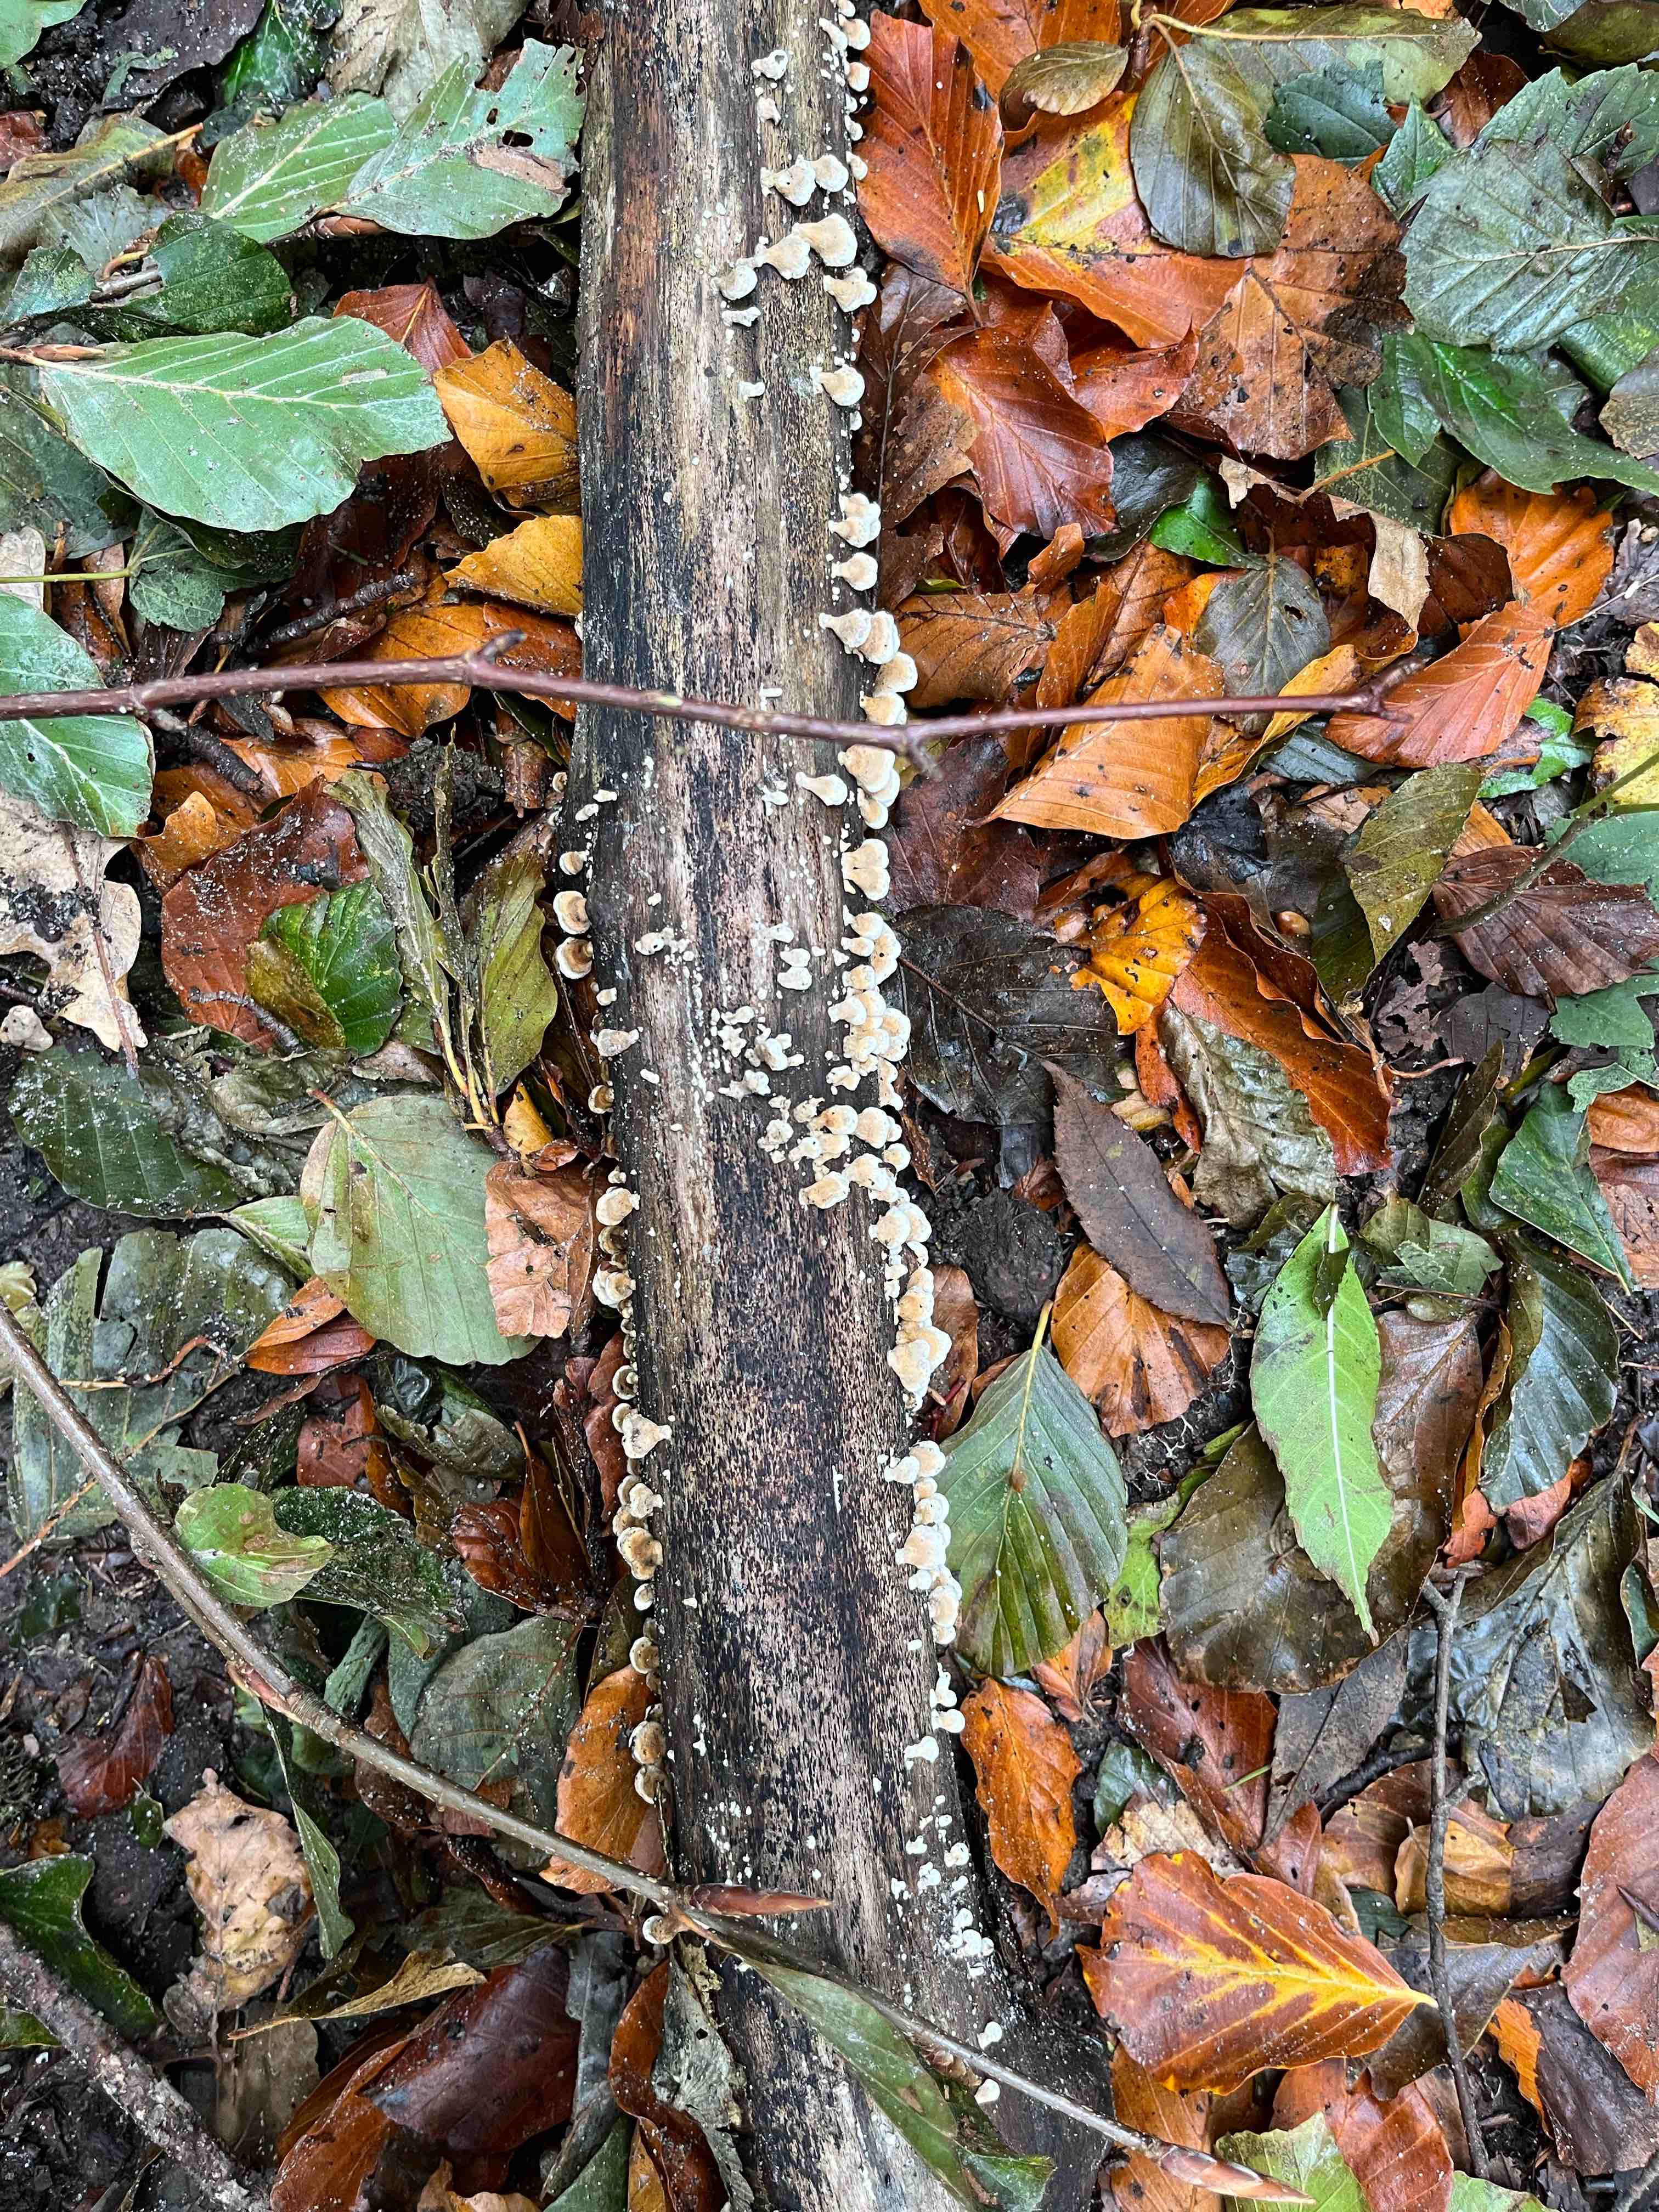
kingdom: Fungi
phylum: Basidiomycota
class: Agaricomycetes
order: Amylocorticiales
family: Amylocorticiaceae
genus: Plicaturopsis
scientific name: Plicaturopsis crispa
